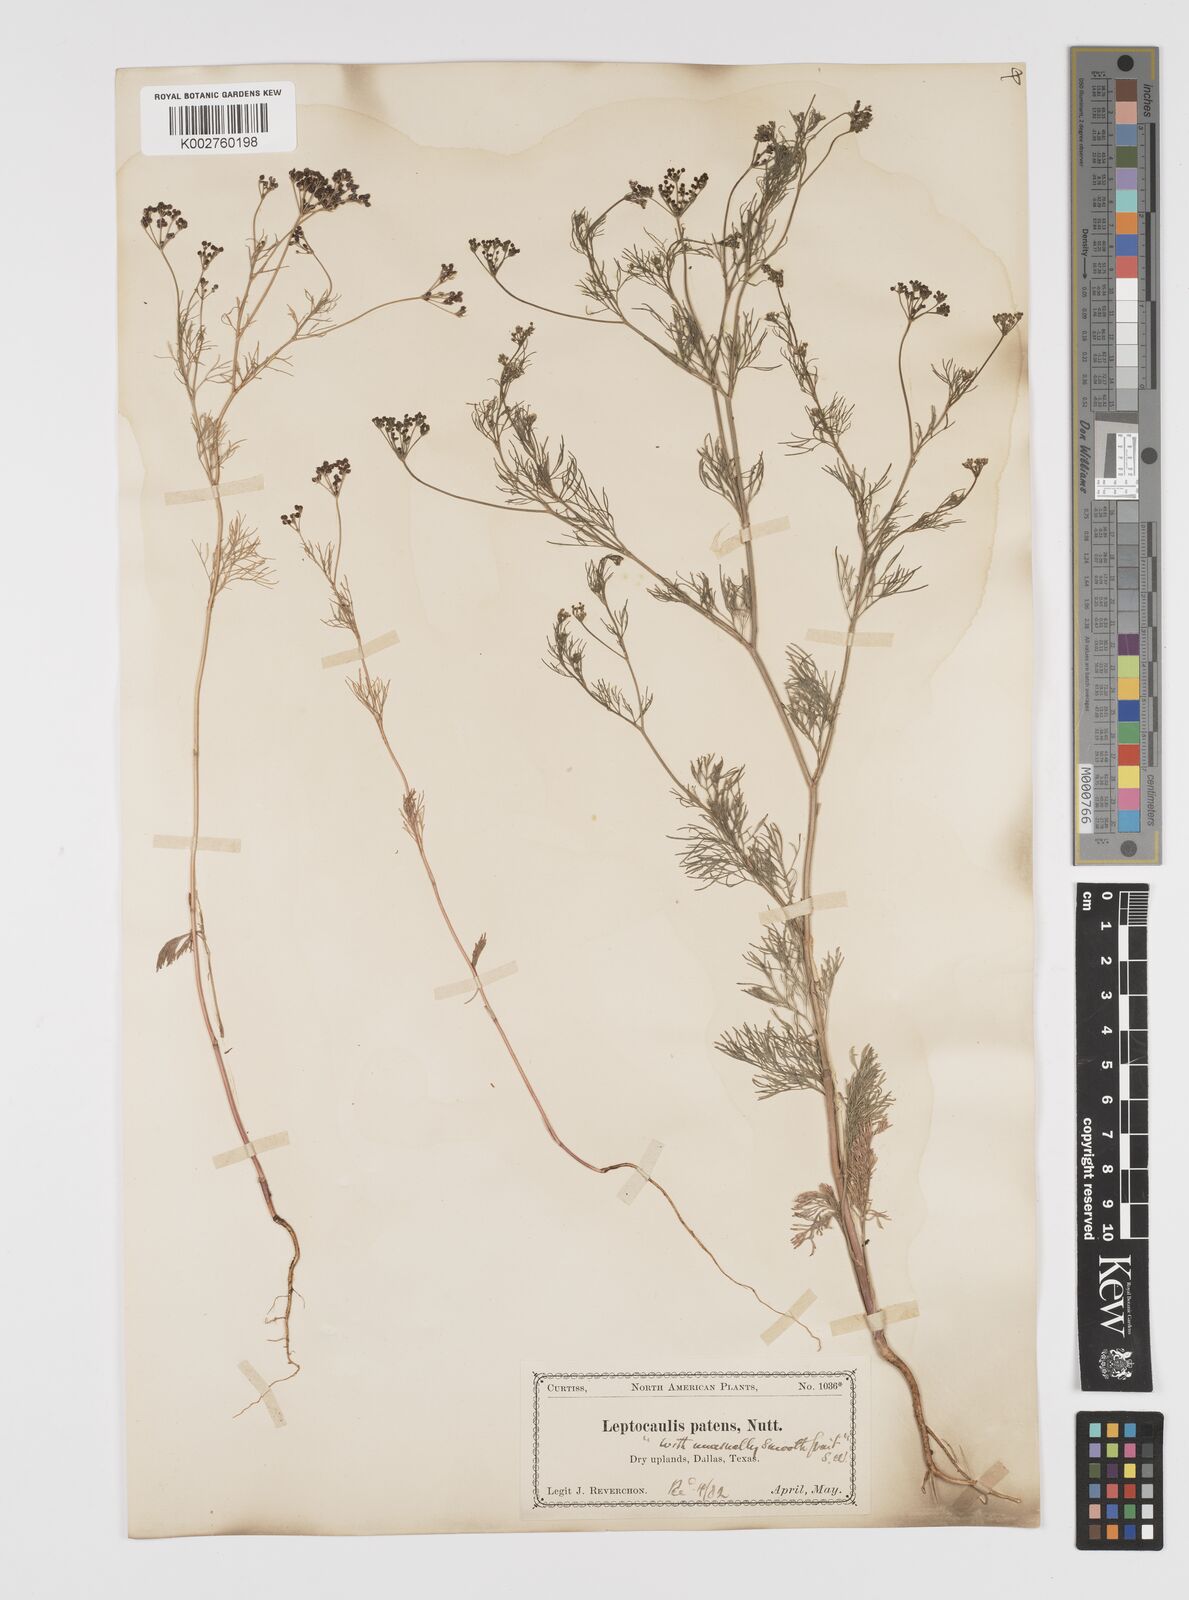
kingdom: Plantae
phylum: Tracheophyta
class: Magnoliopsida
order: Apiales
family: Apiaceae
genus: Spermolepis
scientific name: Spermolepis inermis
